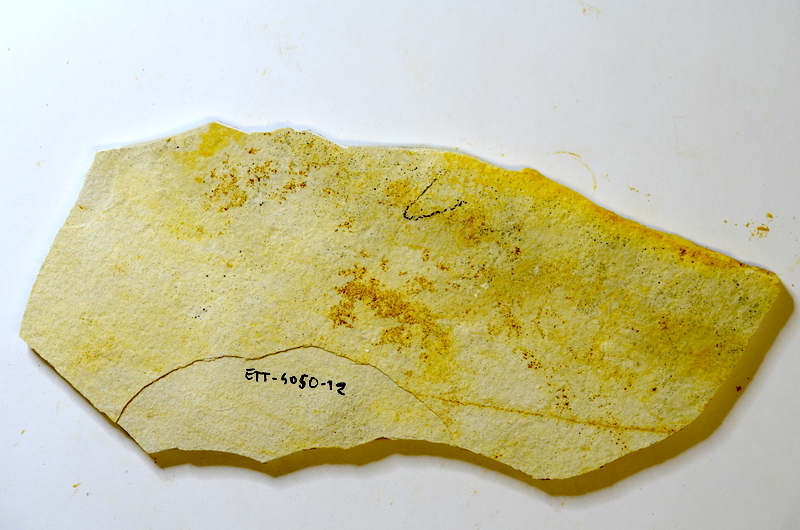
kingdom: Animalia
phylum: Chordata
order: Salmoniformes
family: Orthogonikleithridae
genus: Orthogonikleithrus
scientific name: Orthogonikleithrus hoelli
